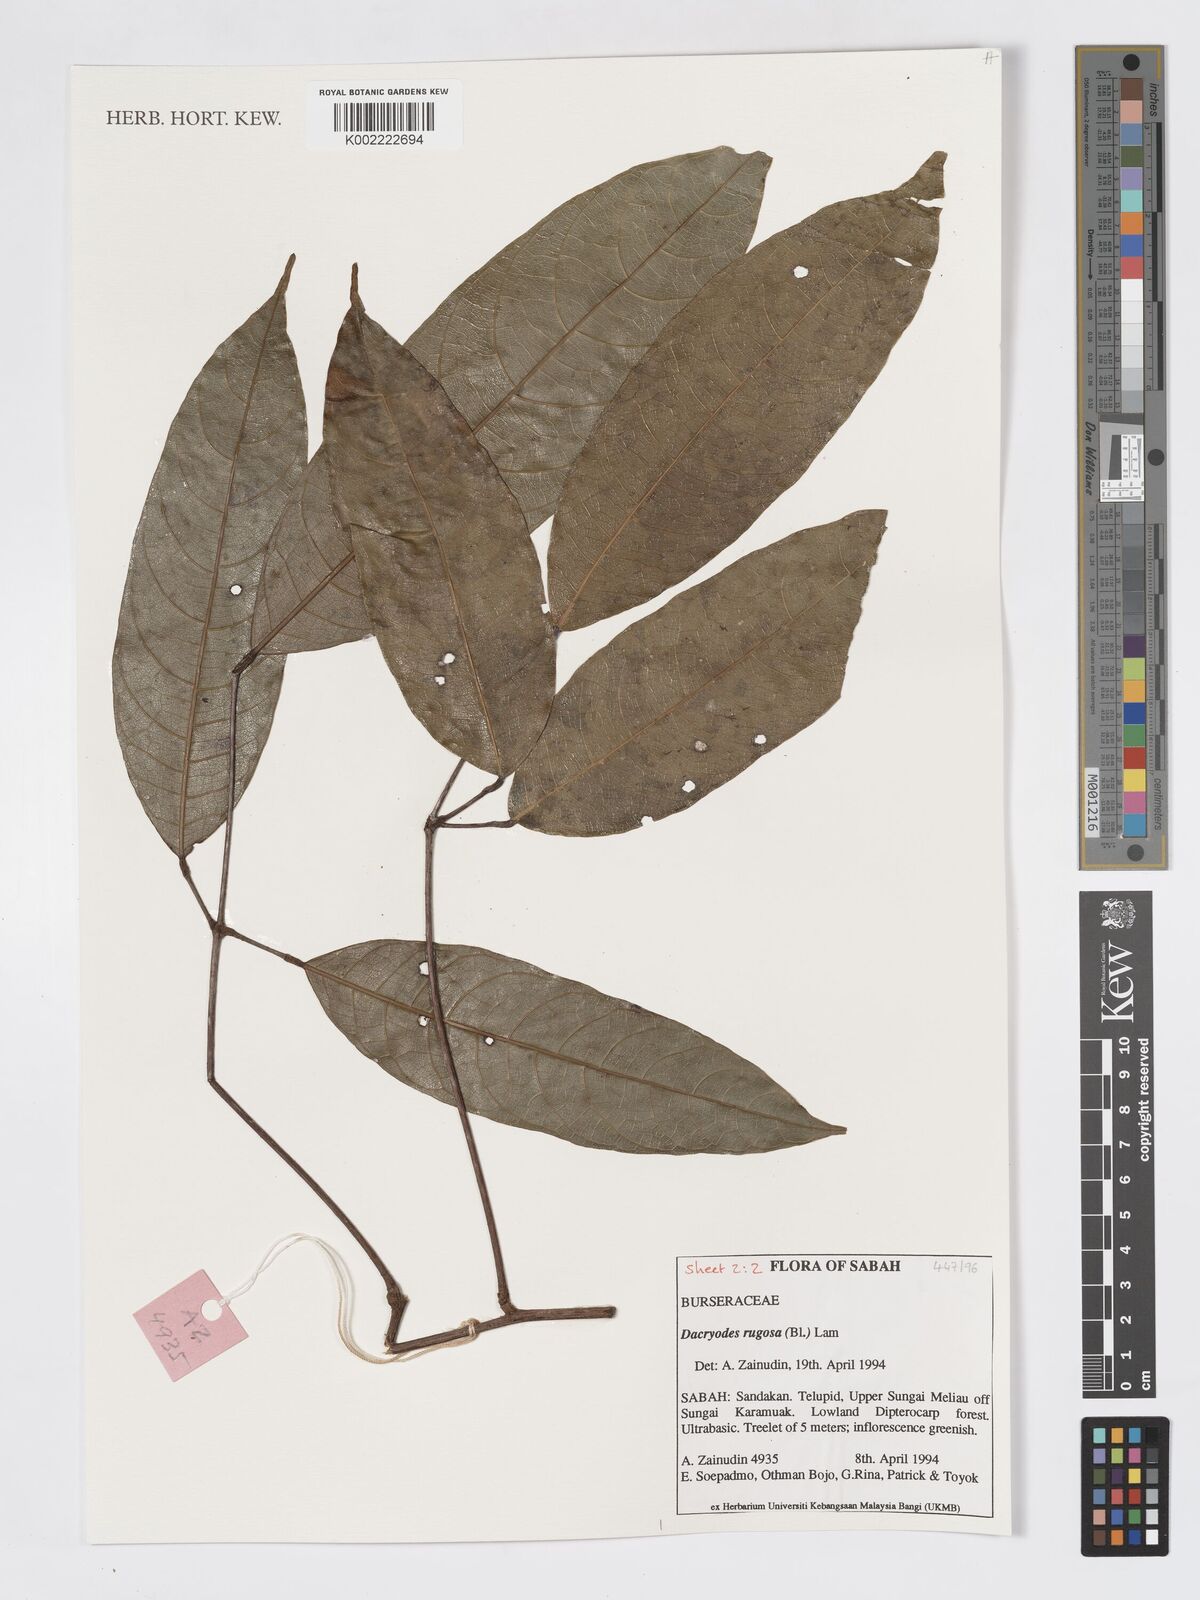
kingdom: Plantae
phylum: Tracheophyta
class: Magnoliopsida
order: Sapindales
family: Burseraceae
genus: Dacryodes
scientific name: Dacryodes rugosa
